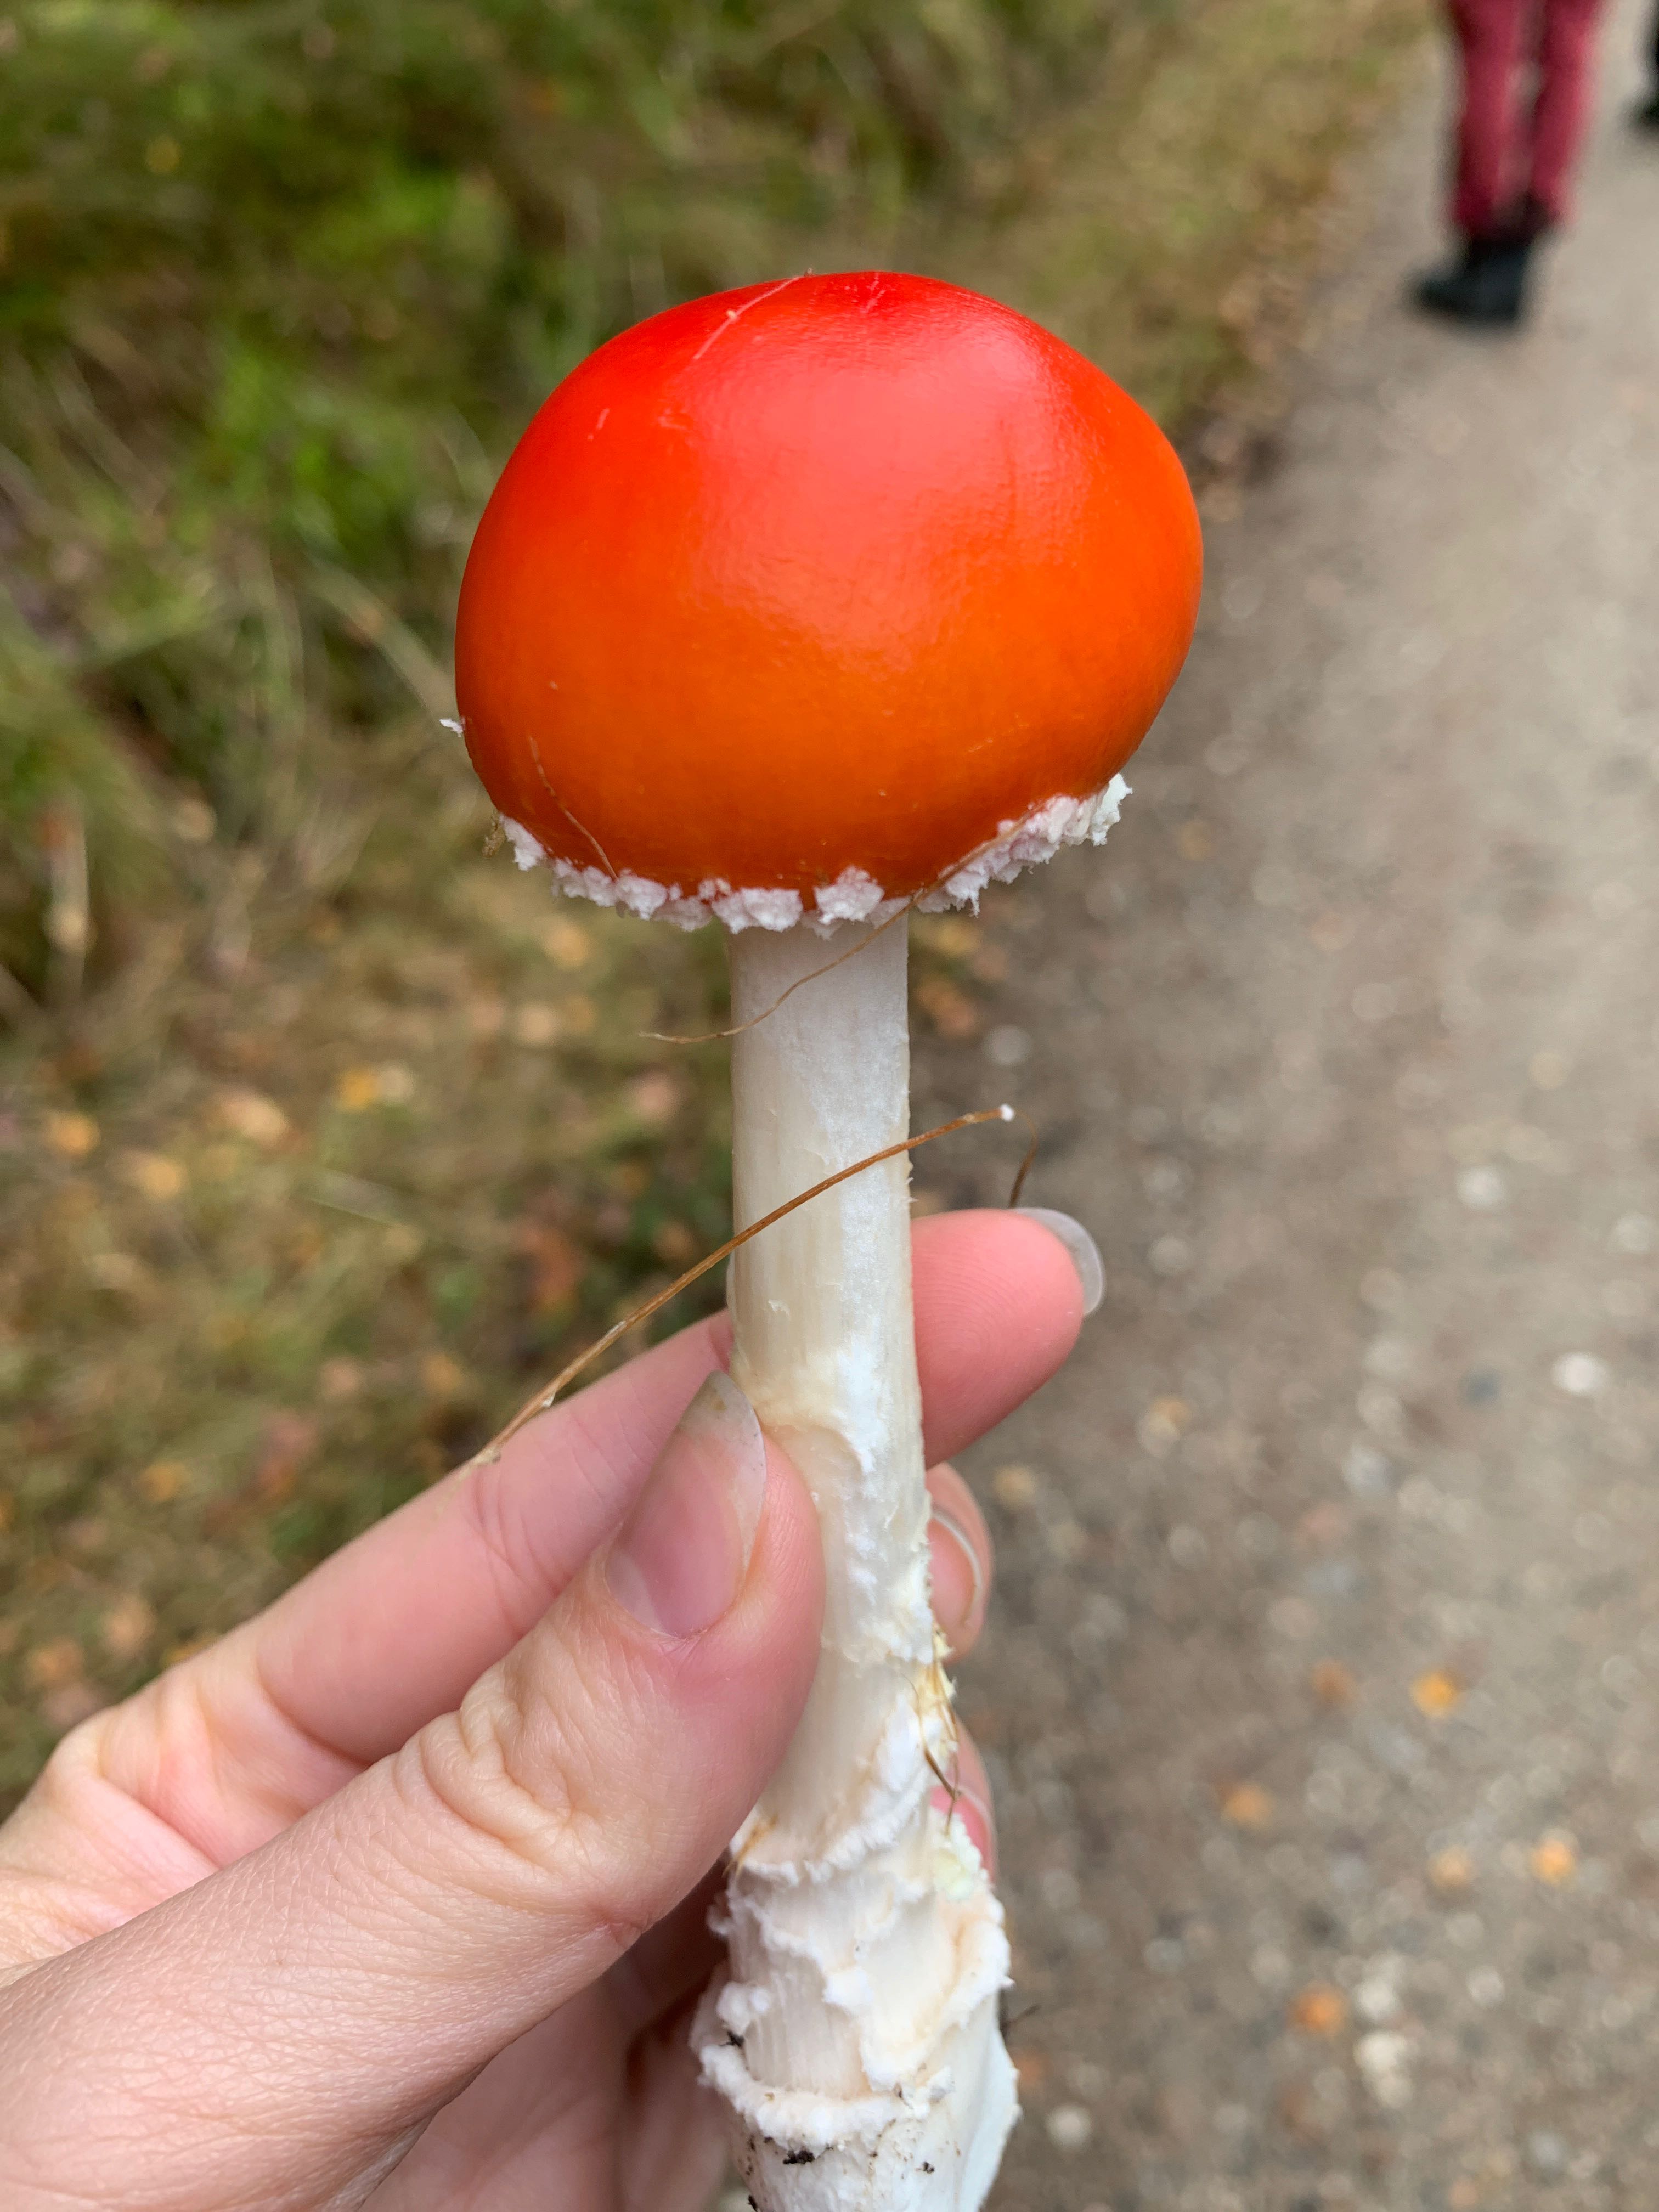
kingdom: Fungi
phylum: Basidiomycota
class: Agaricomycetes
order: Agaricales
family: Amanitaceae
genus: Amanita
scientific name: Amanita muscaria
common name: rød fluesvamp
